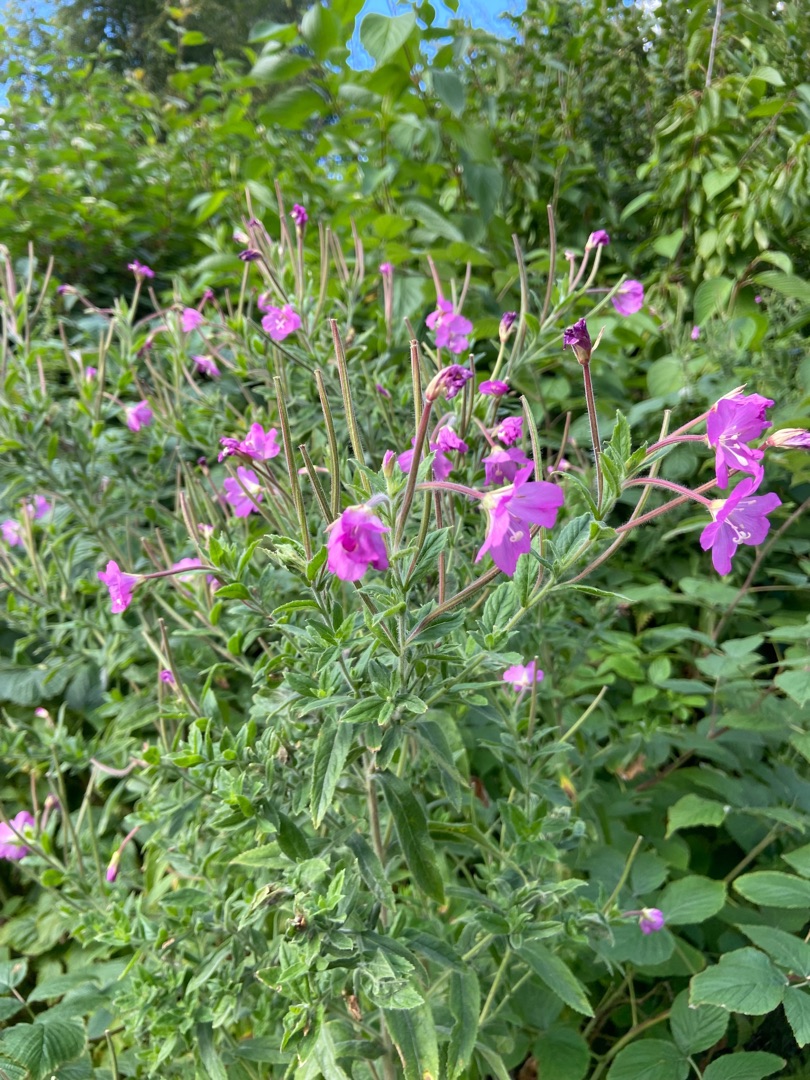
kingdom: Plantae
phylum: Tracheophyta
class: Magnoliopsida
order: Myrtales
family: Onagraceae
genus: Epilobium
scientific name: Epilobium hirsutum
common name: Lådden dueurt
